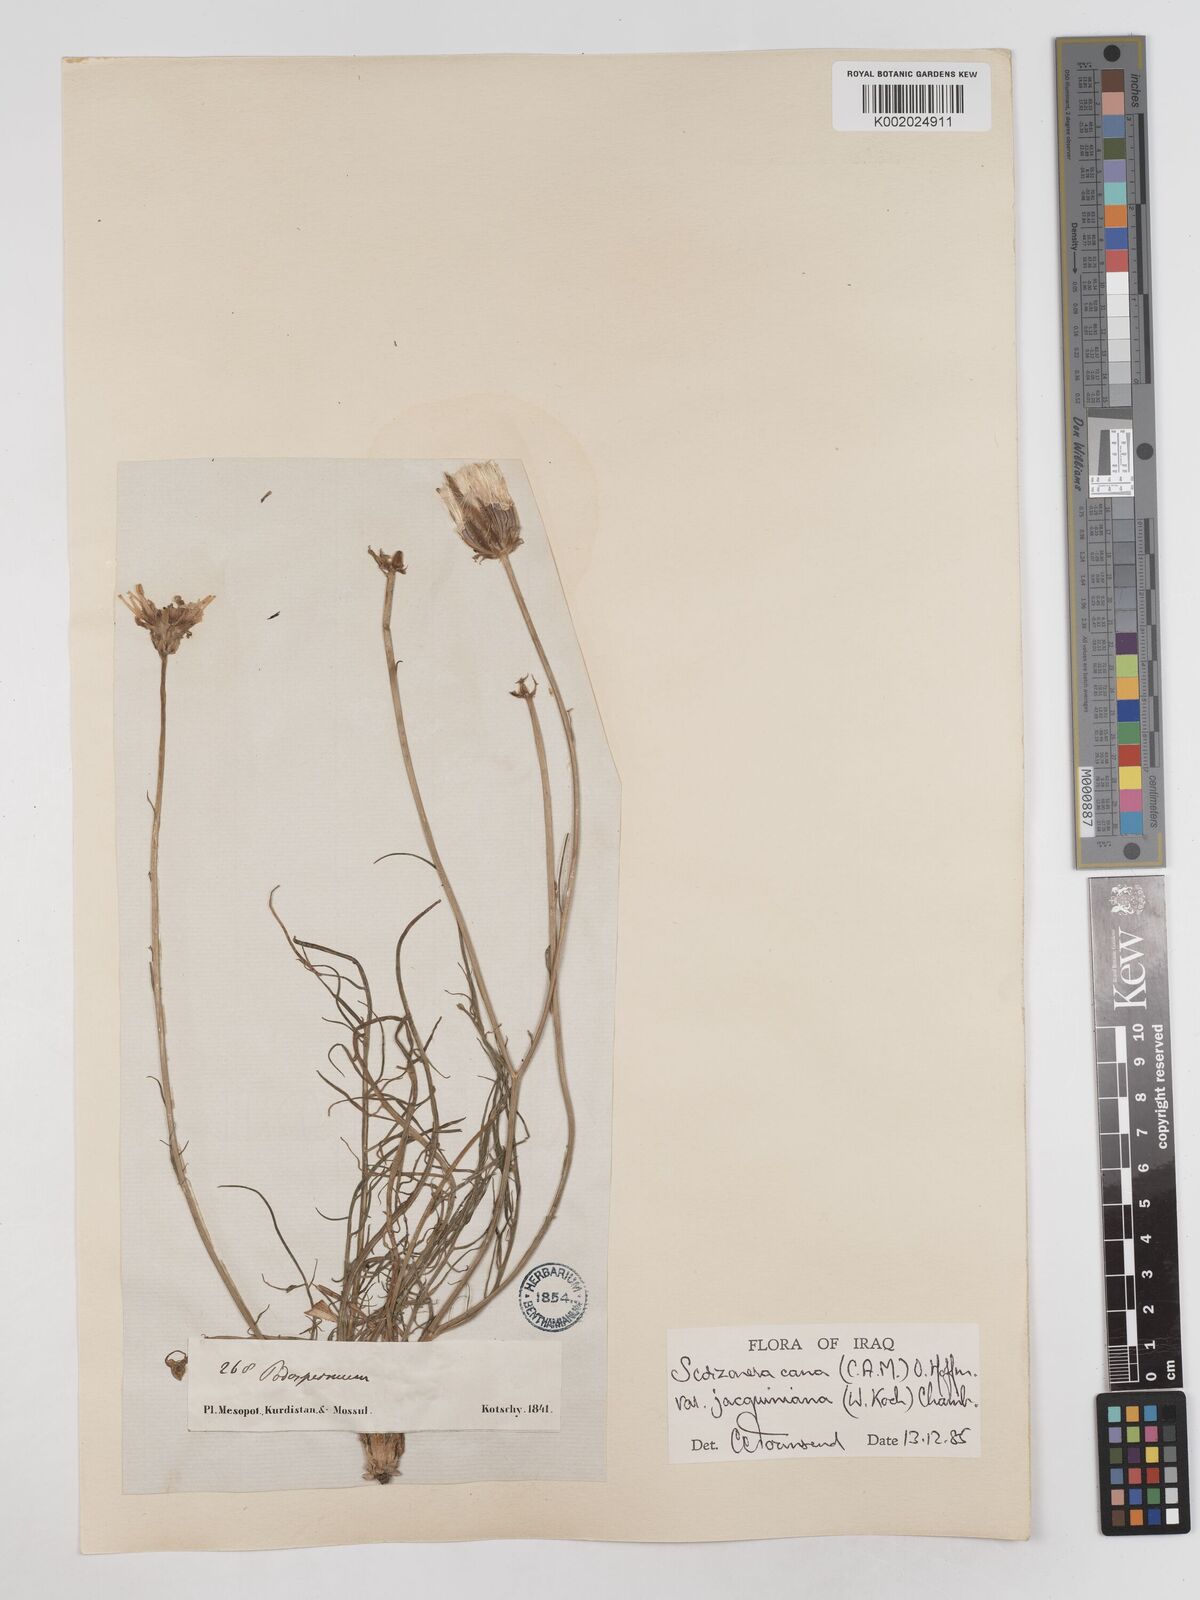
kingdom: Plantae
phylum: Tracheophyta
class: Magnoliopsida
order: Asterales
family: Asteraceae
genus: Scorzonera
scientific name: Scorzonera cana
